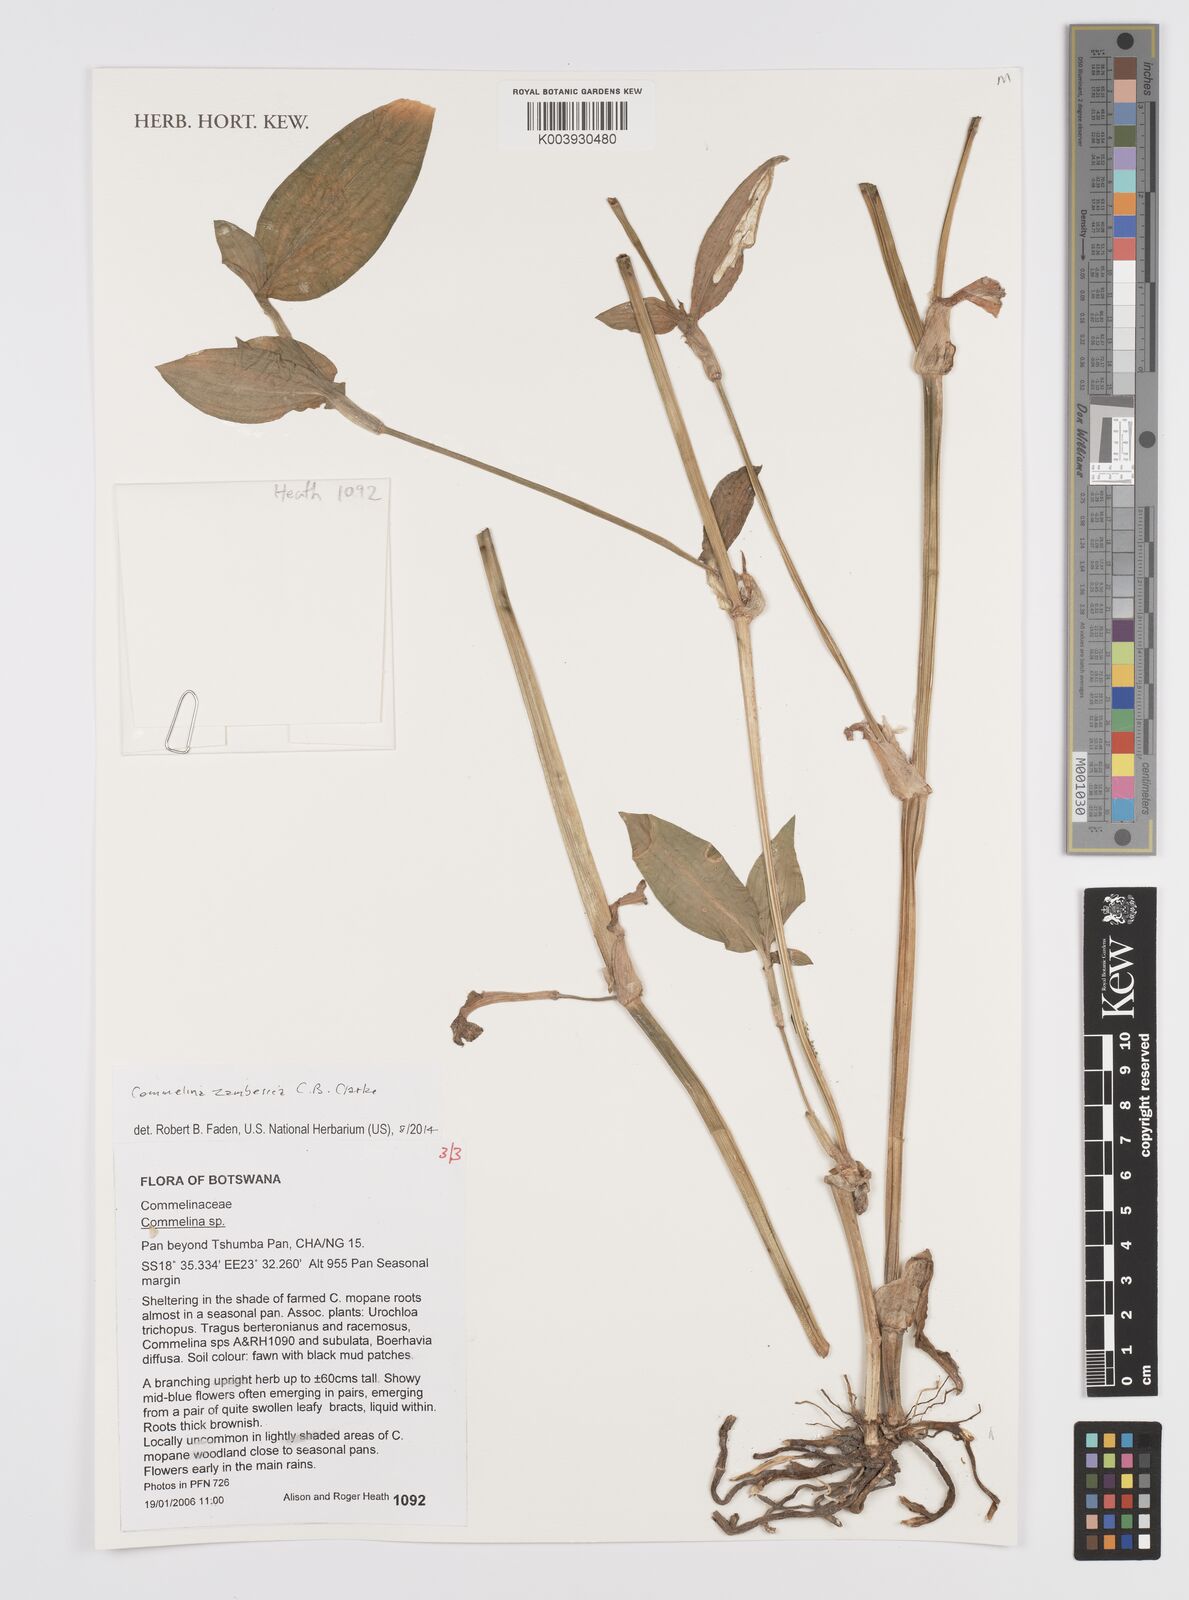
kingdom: Plantae
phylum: Tracheophyta
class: Liliopsida
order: Commelinales
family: Commelinaceae
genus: Commelina
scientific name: Commelina zambesica
